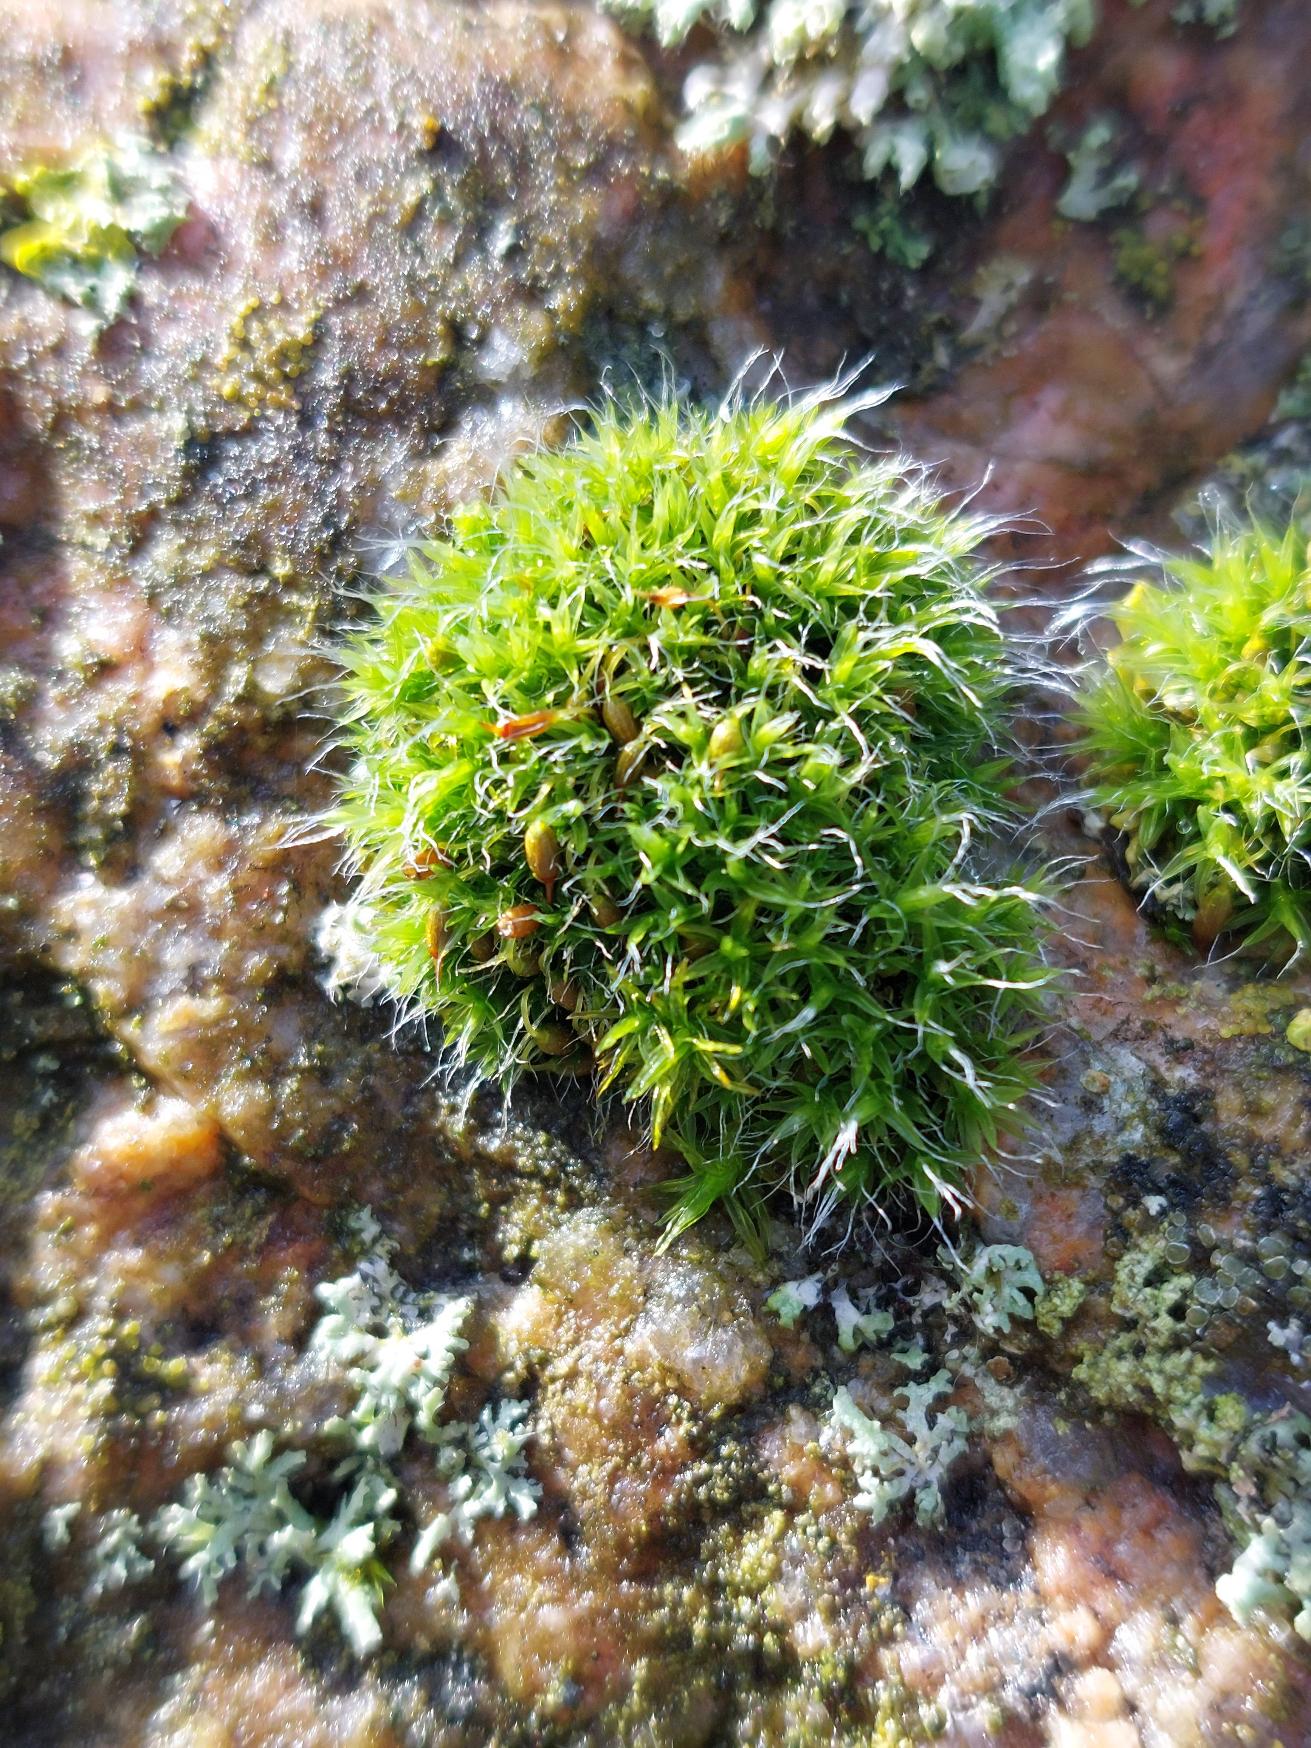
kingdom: Plantae
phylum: Bryophyta
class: Bryopsida
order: Grimmiales
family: Grimmiaceae
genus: Grimmia
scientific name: Grimmia pulvinata
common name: Pude-gråmos
